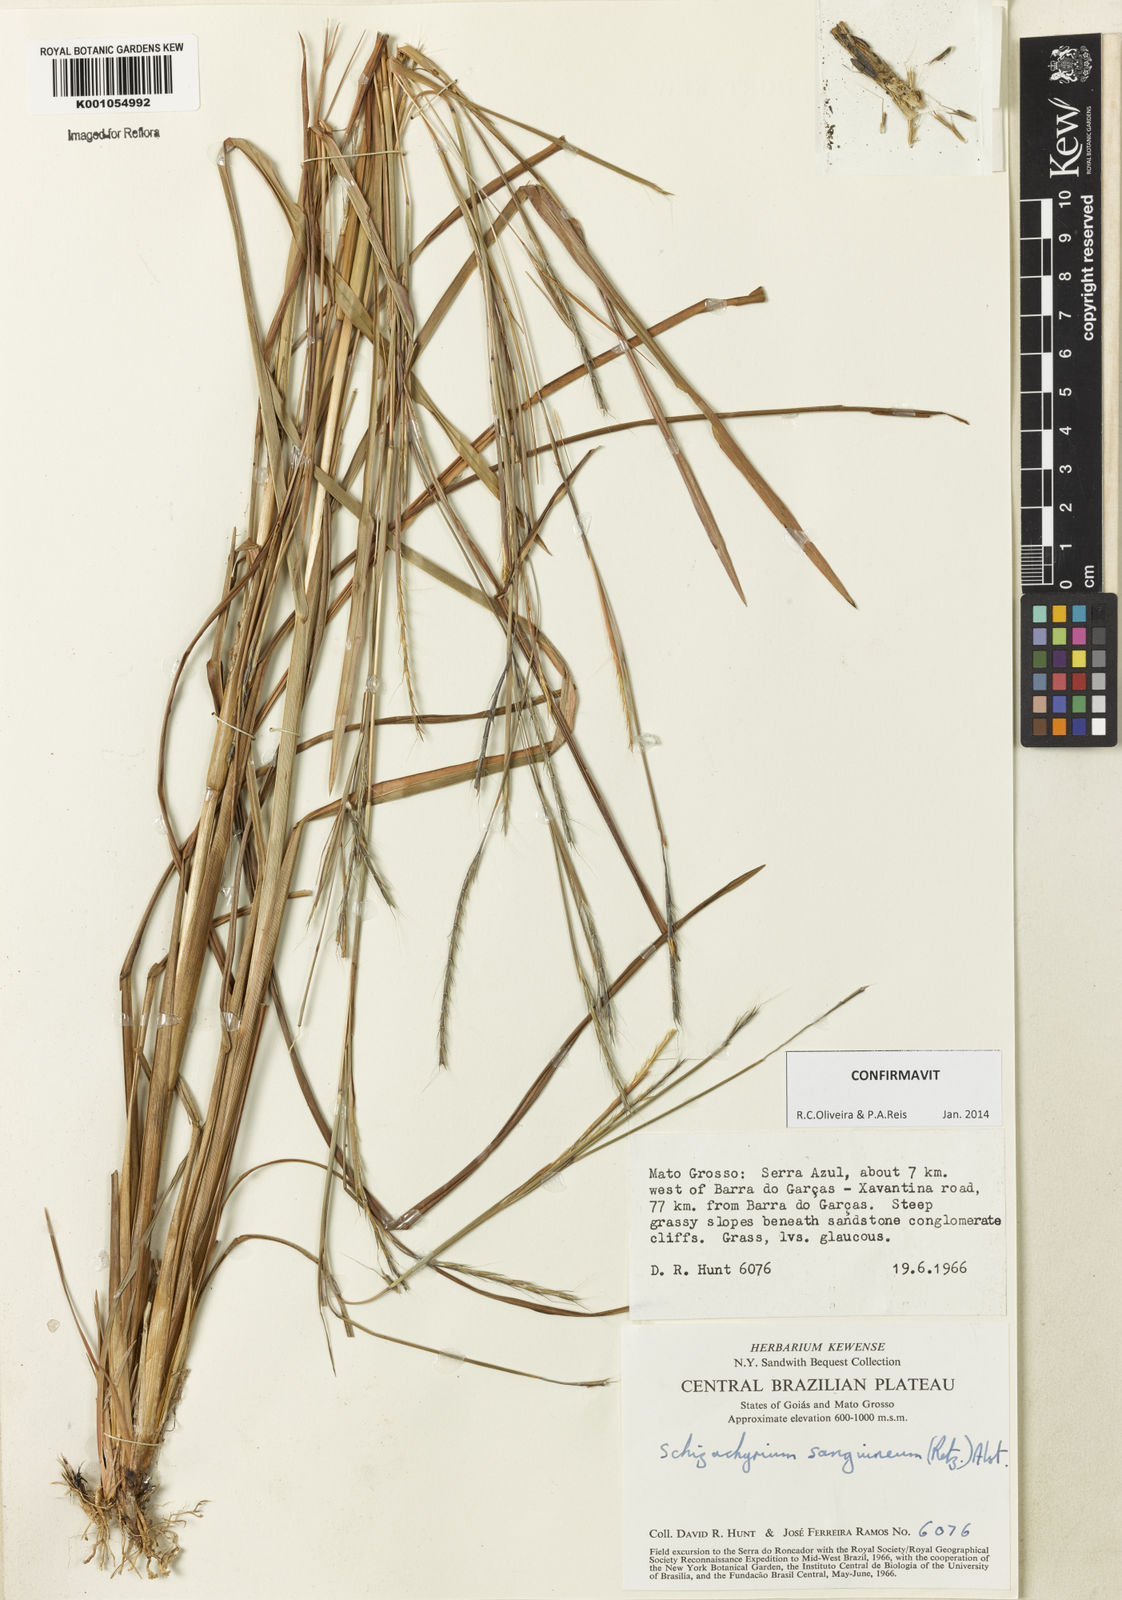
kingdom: Plantae
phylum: Tracheophyta
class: Liliopsida
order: Poales
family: Poaceae
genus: Schizachyrium
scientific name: Schizachyrium sanguineum
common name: Crimson bluestem
